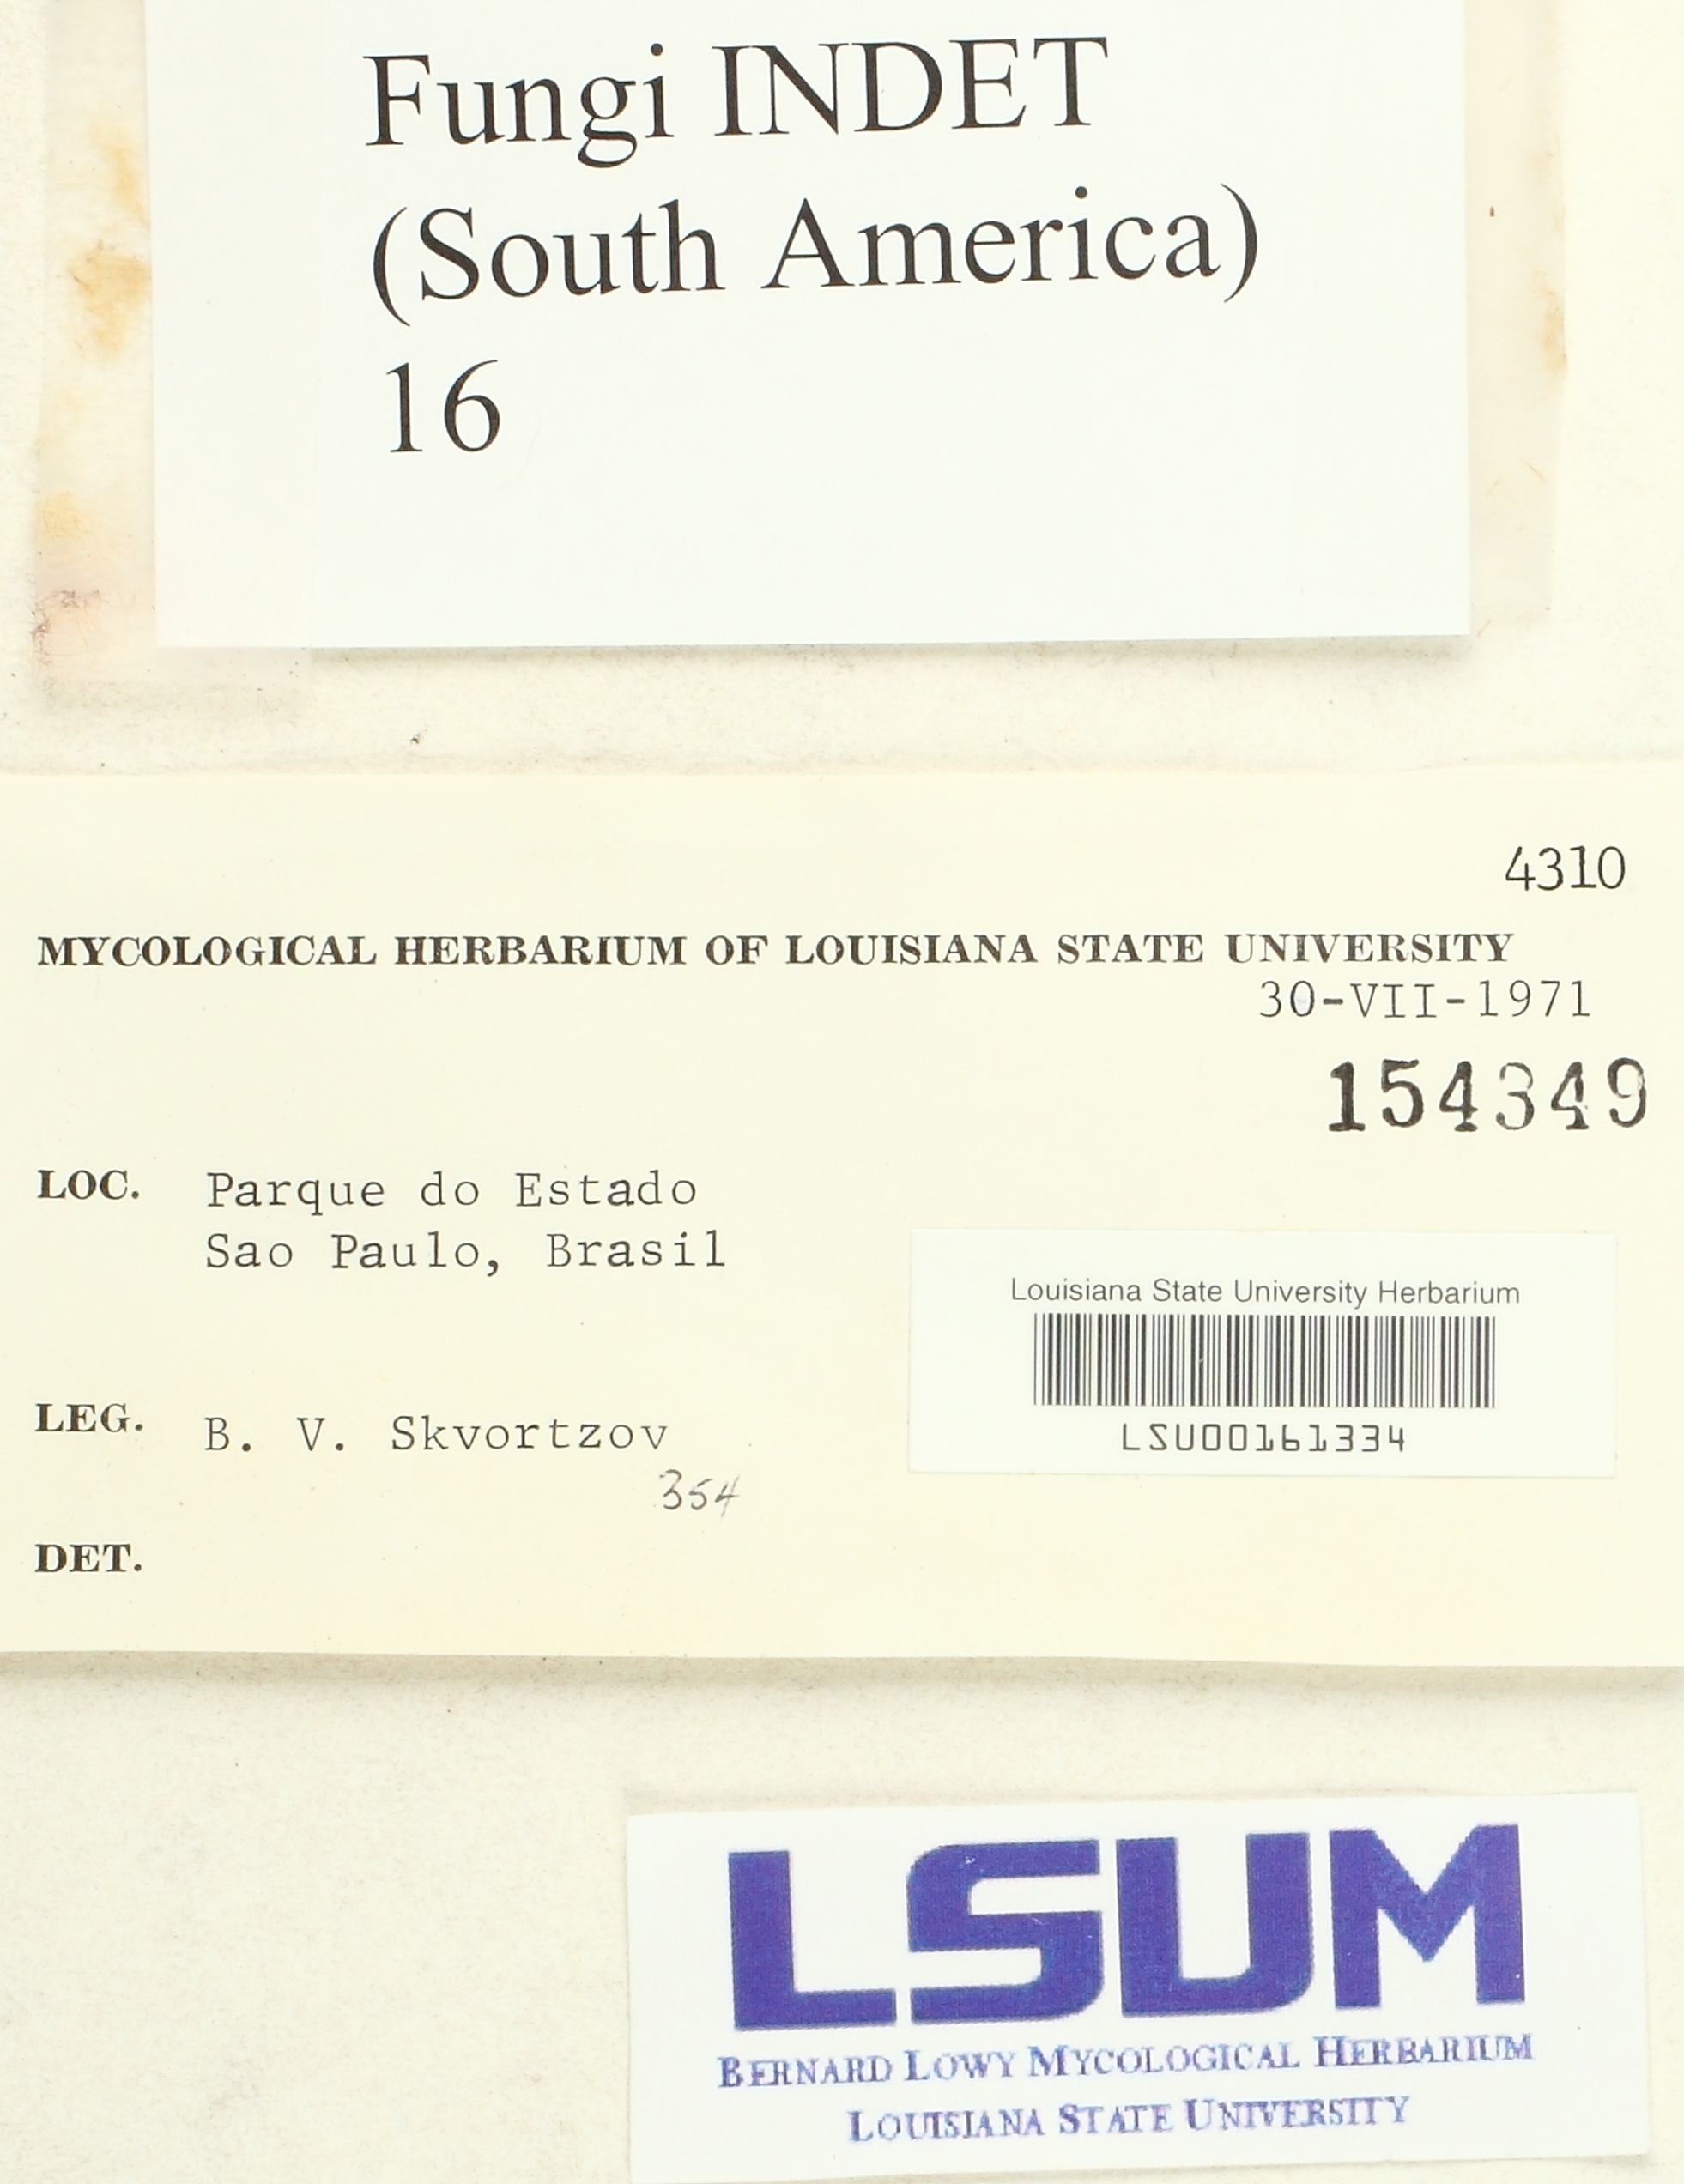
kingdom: Fungi
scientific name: Fungi
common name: Fungi
